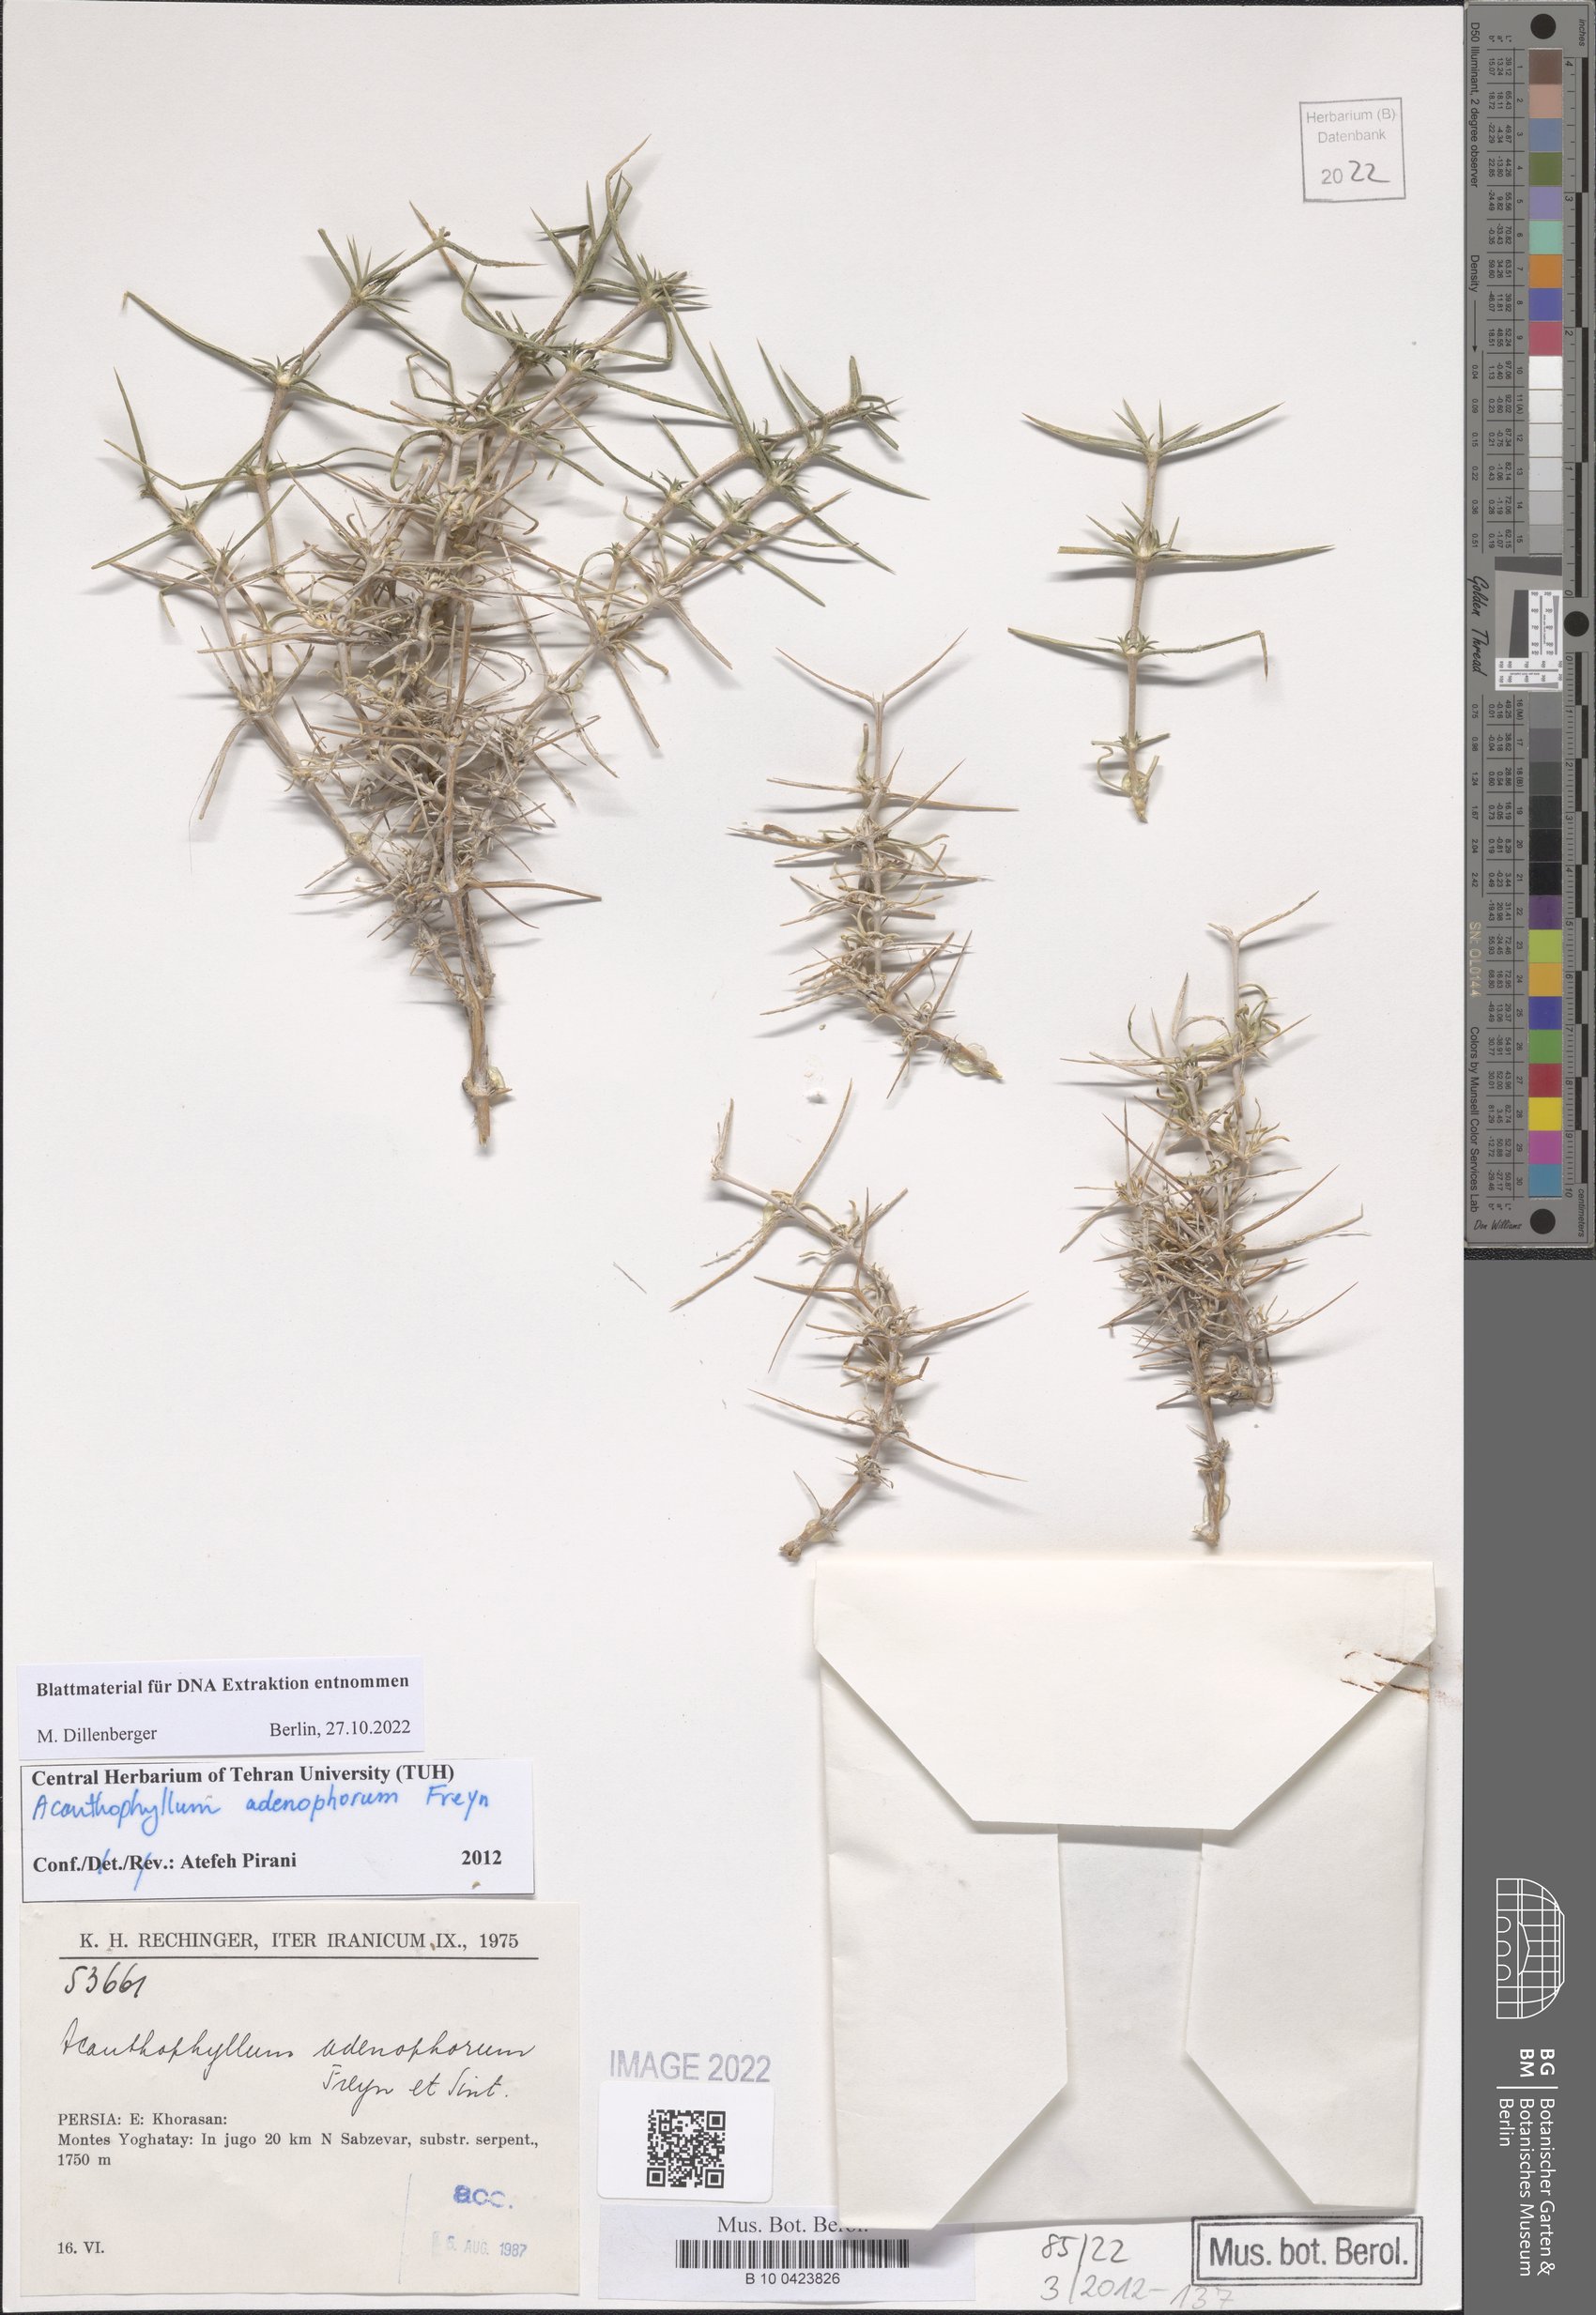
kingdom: Plantae
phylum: Tracheophyta
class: Magnoliopsida
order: Caryophyllales
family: Caryophyllaceae
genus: Acanthophyllum
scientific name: Acanthophyllum adenophorum
